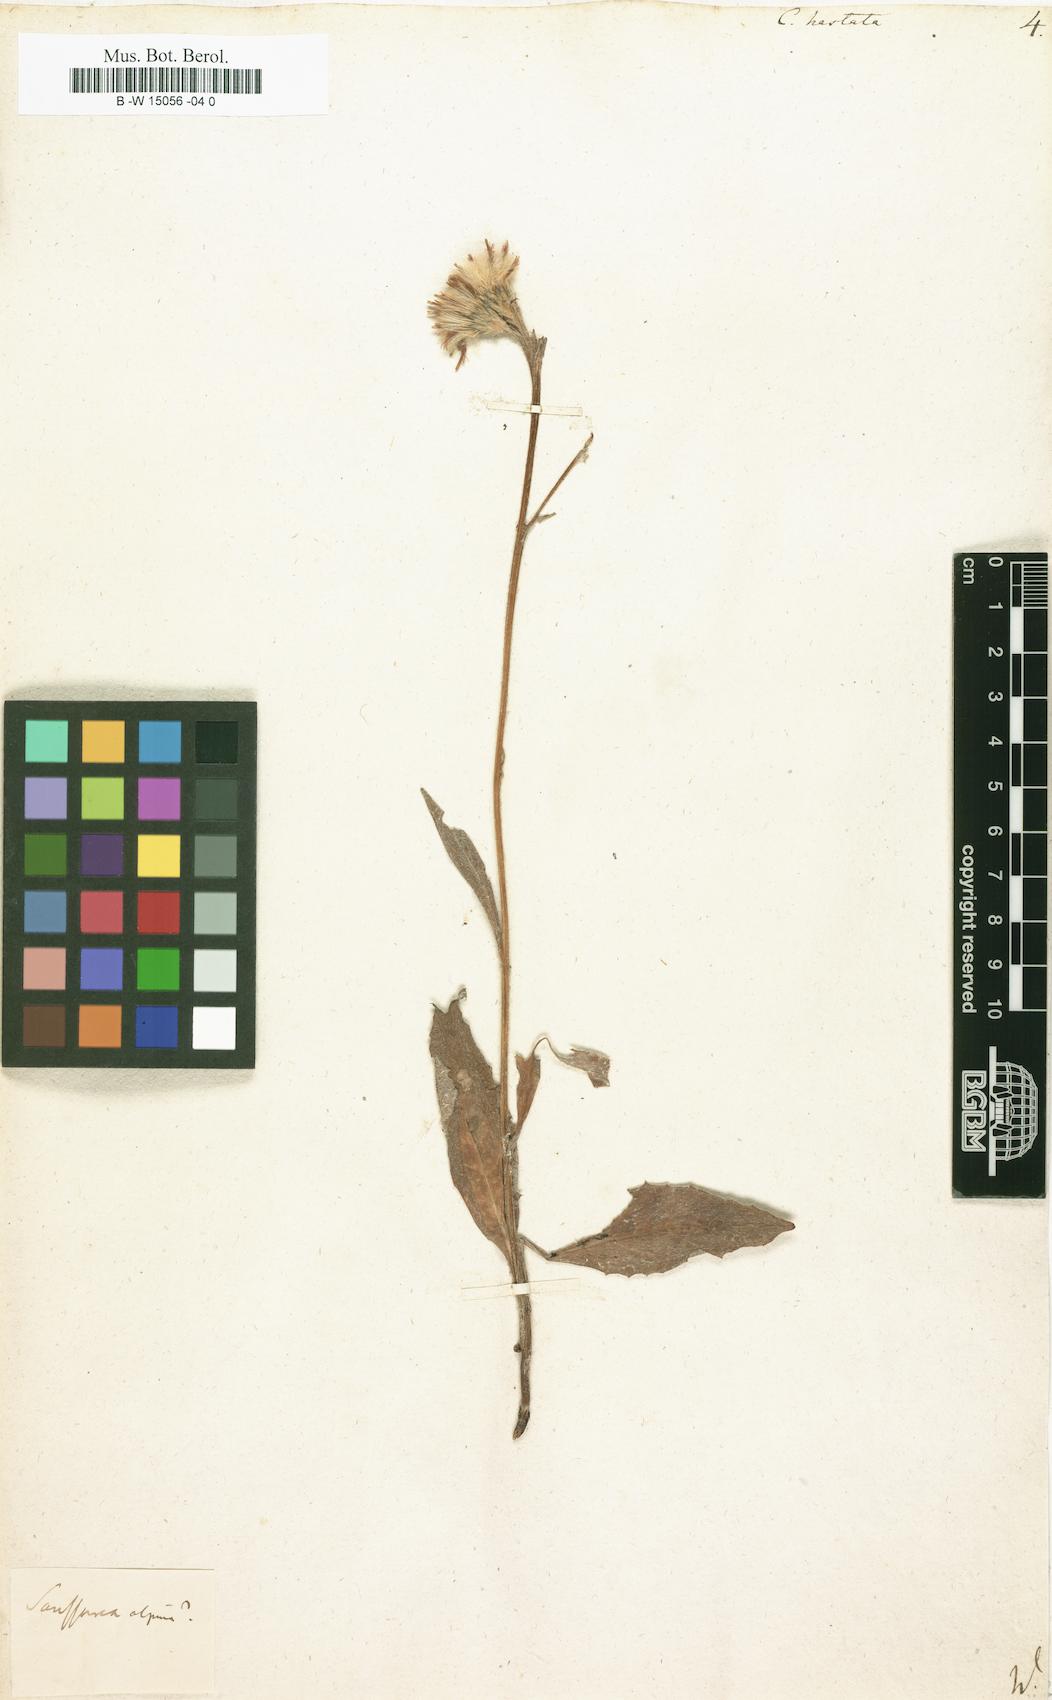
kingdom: Plantae
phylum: Tracheophyta
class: Magnoliopsida
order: Asterales
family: Asteraceae
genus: Parasenecio
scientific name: Parasenecio hastatus
